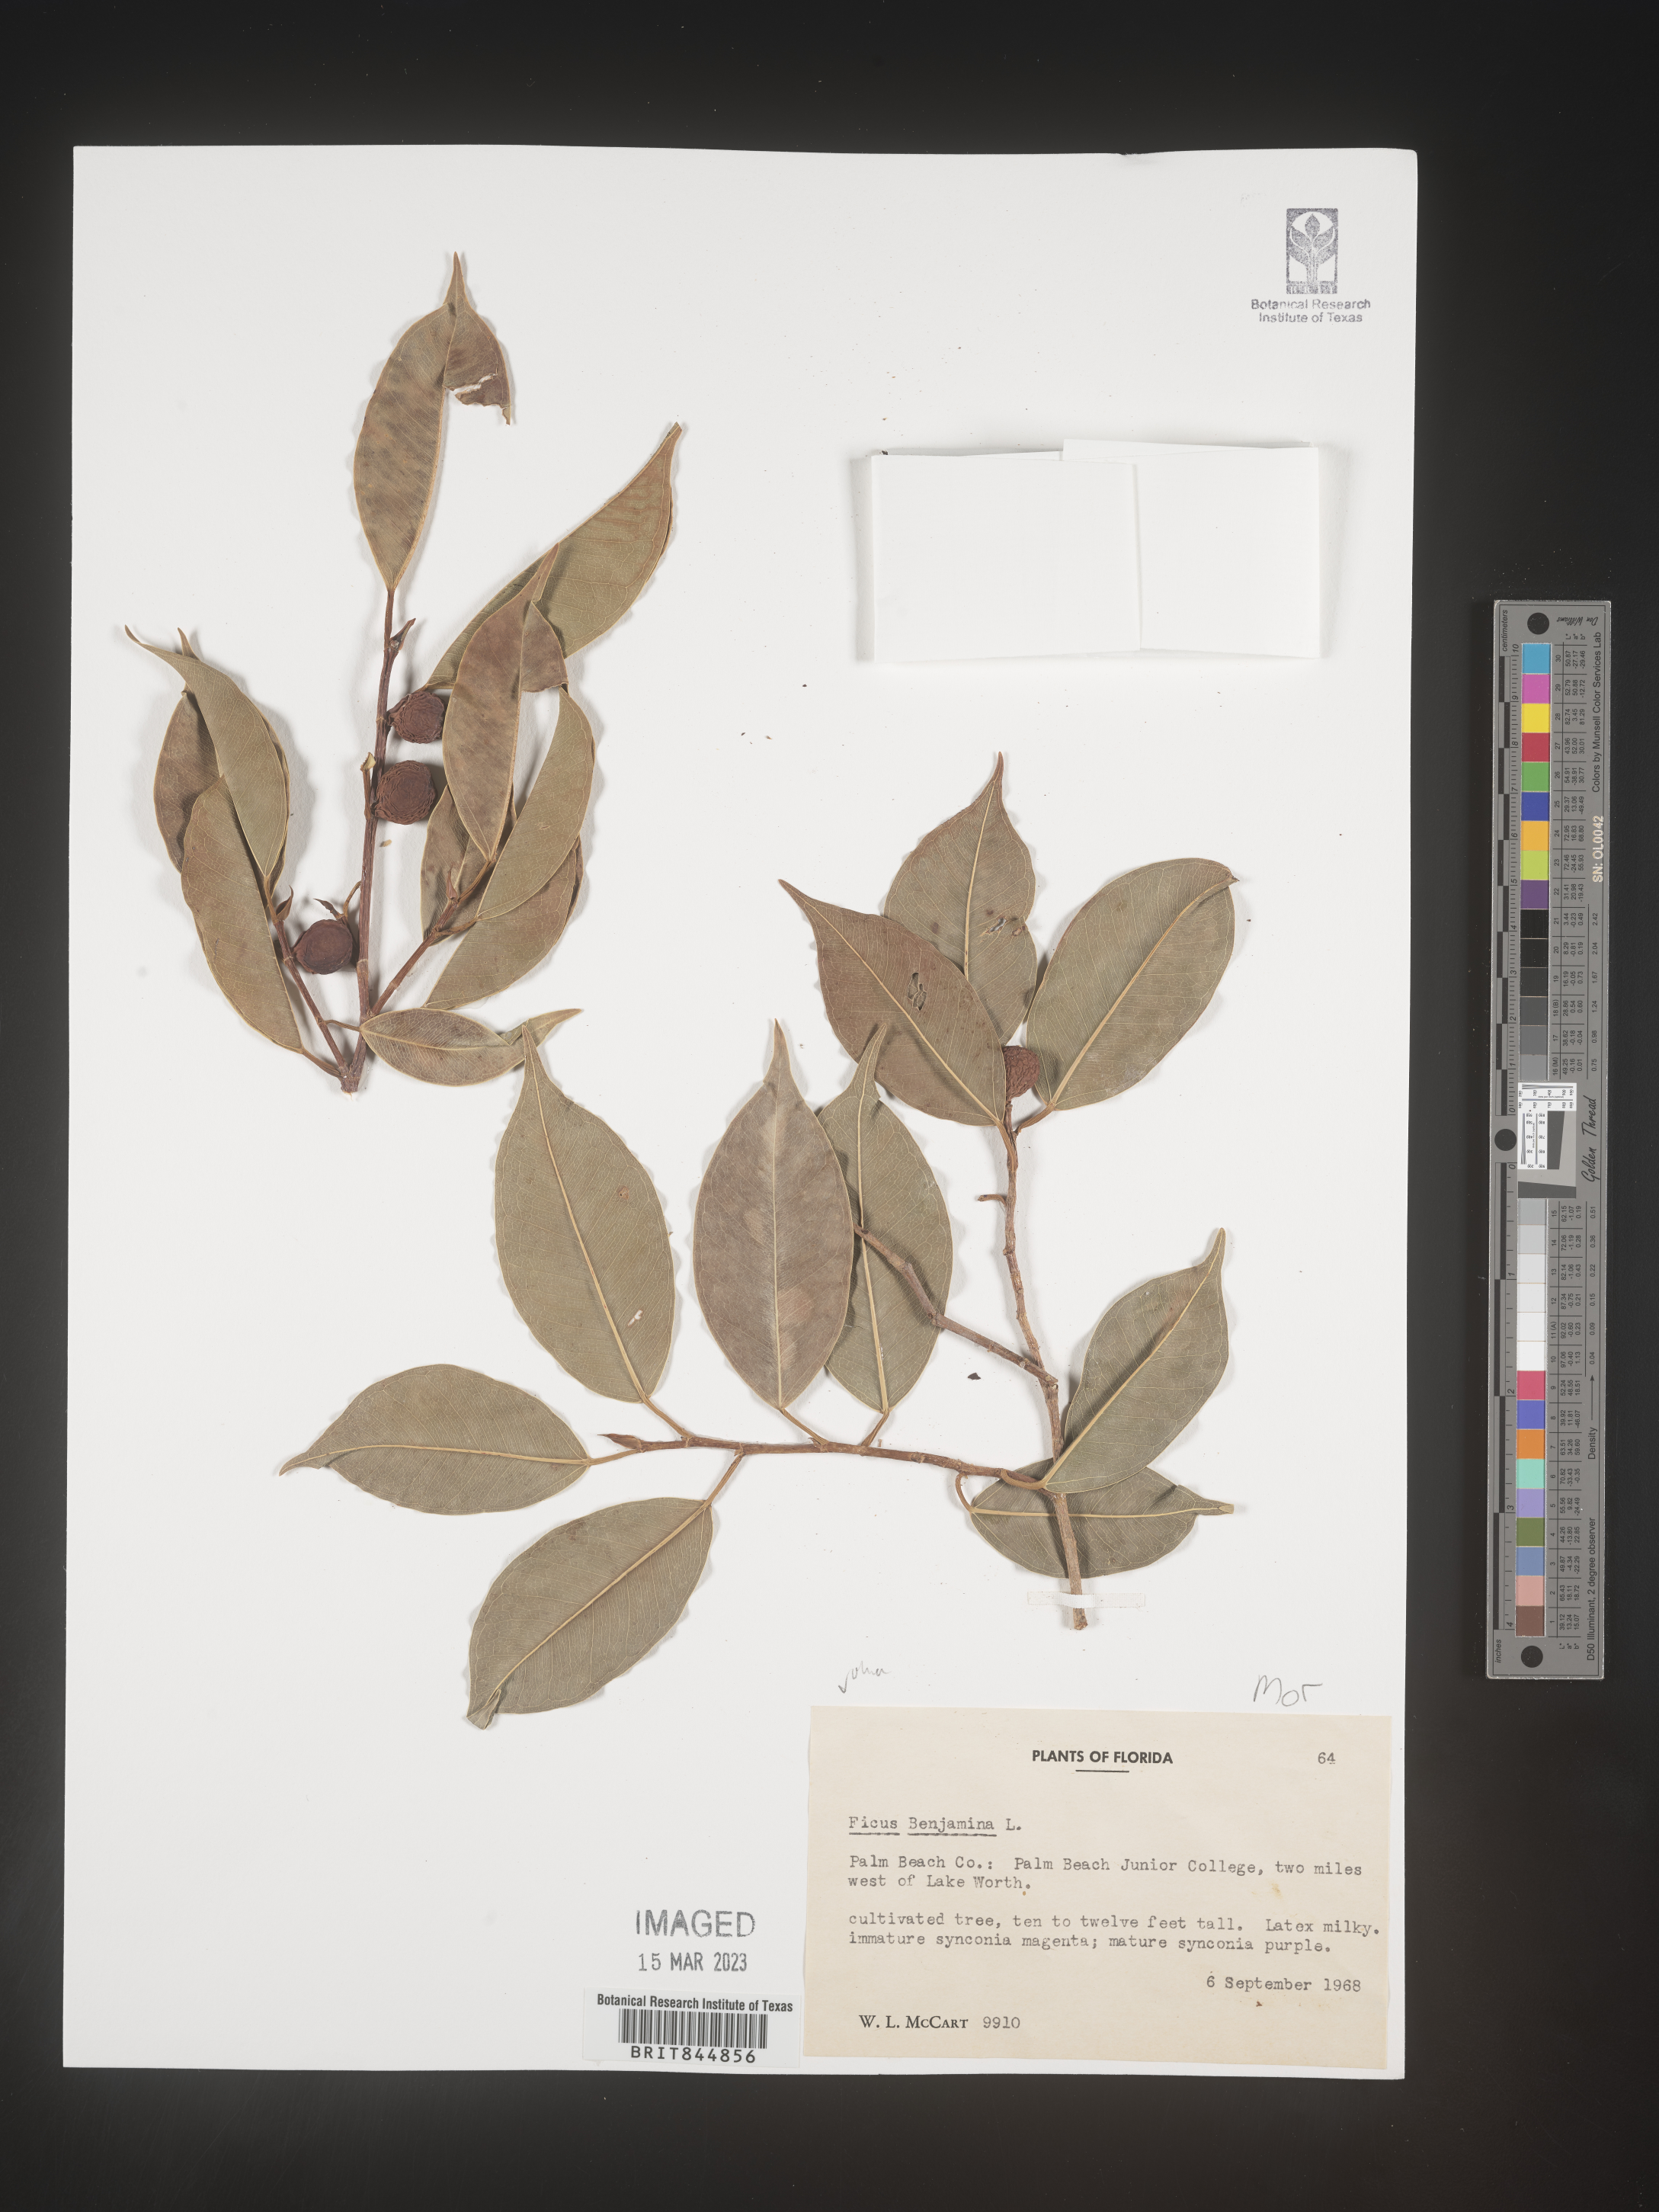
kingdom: Plantae
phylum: Tracheophyta
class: Magnoliopsida
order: Rosales
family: Moraceae
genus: Ficus
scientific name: Ficus
